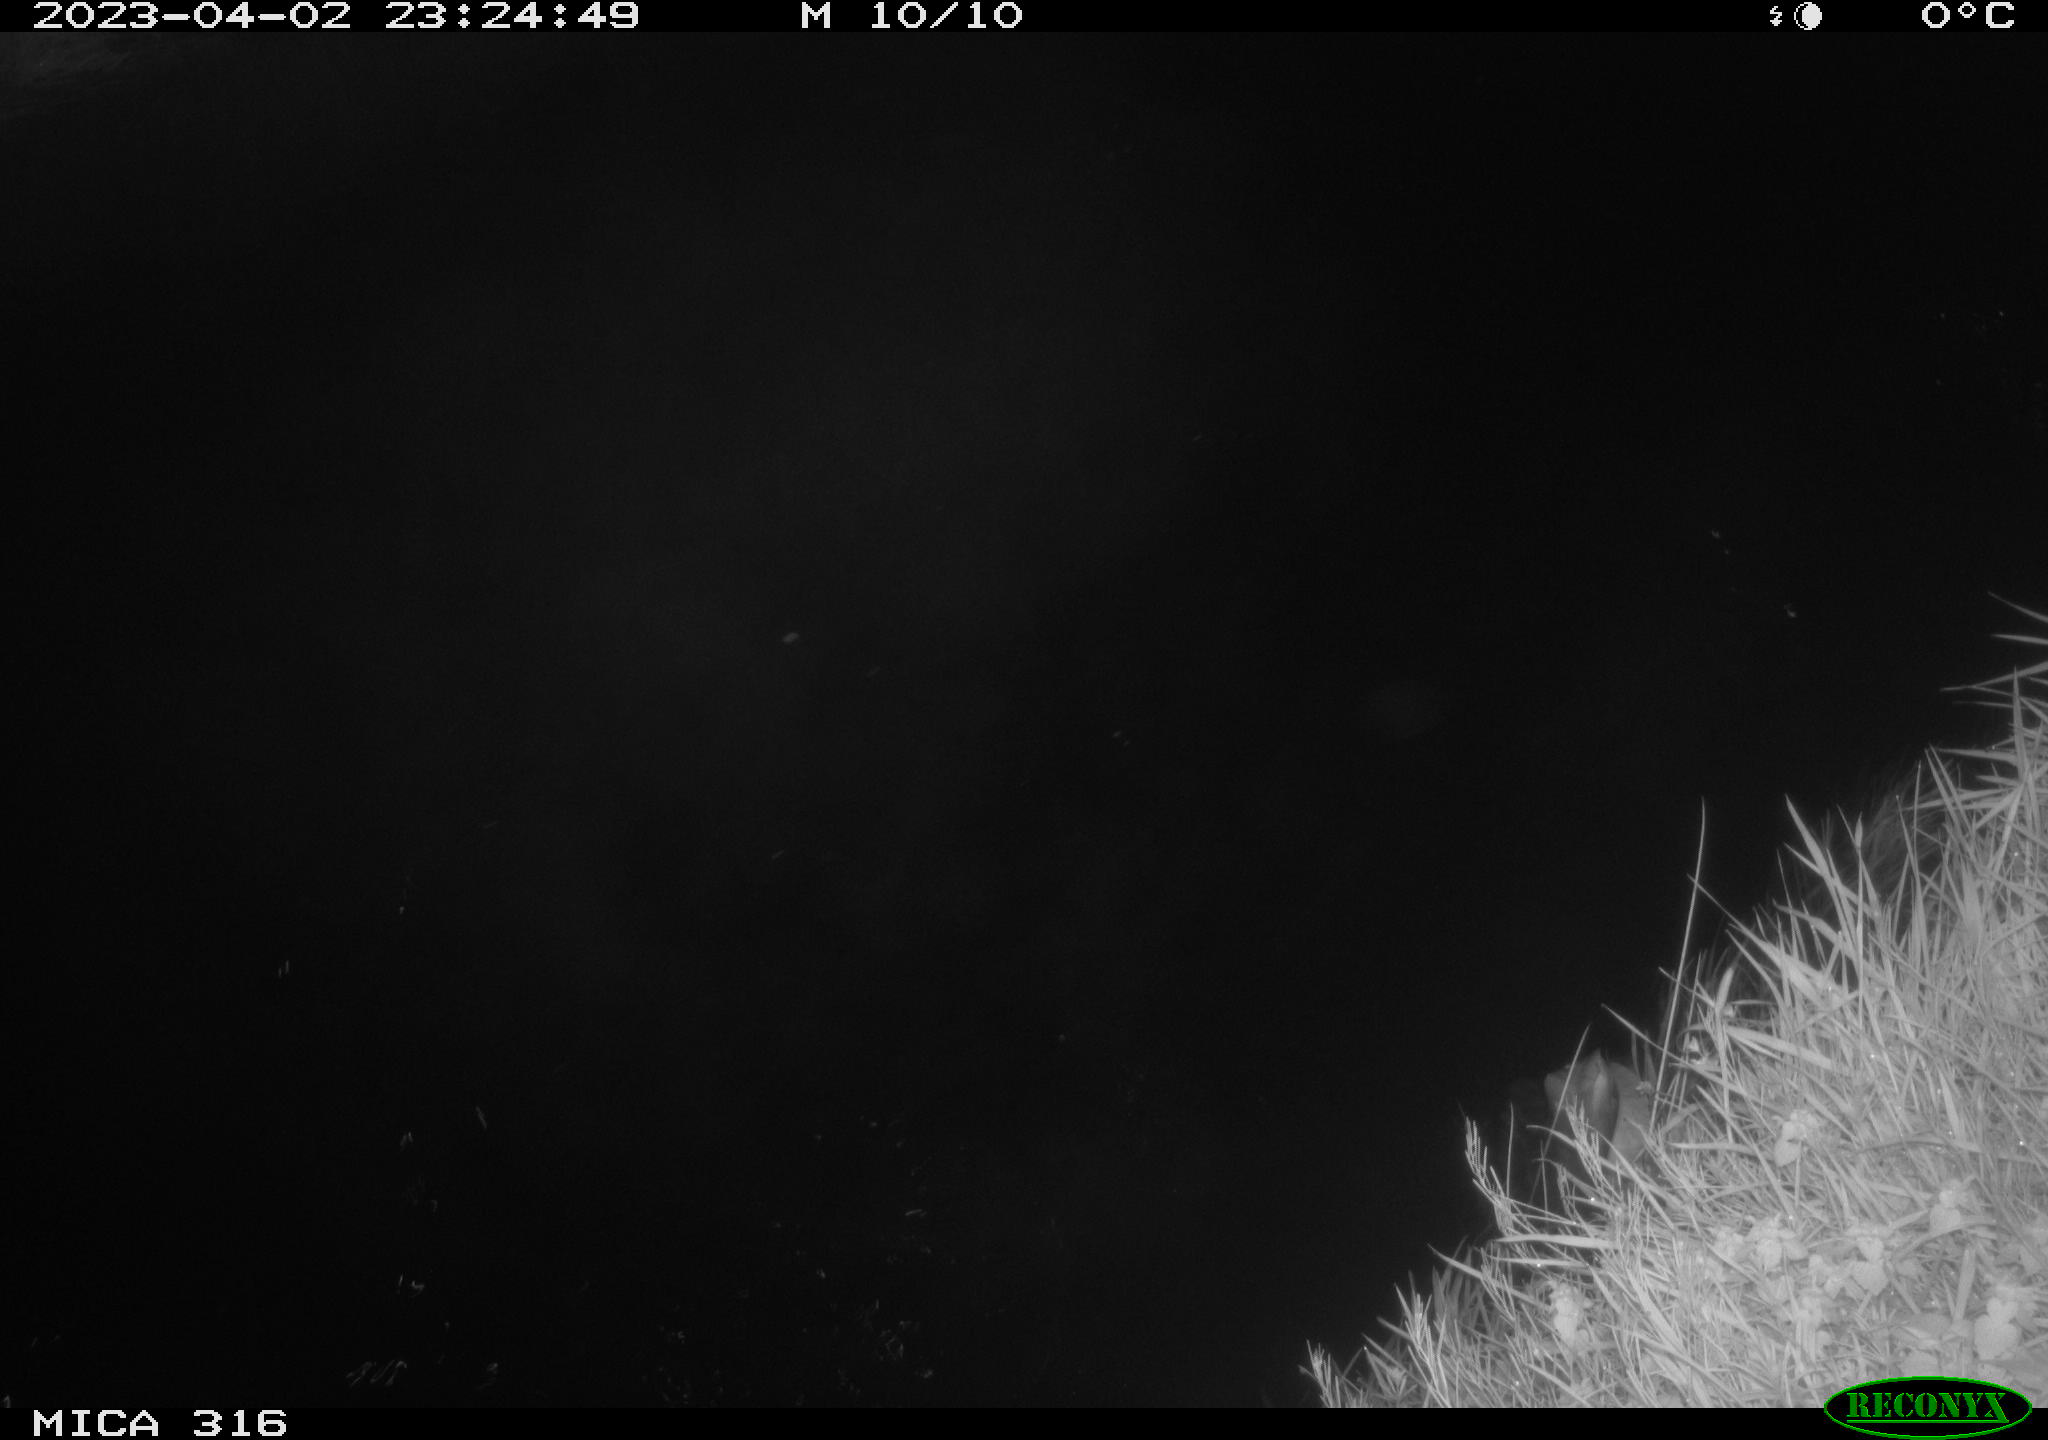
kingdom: Animalia
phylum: Chordata
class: Aves
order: Anseriformes
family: Anatidae
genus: Anas
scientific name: Anas
